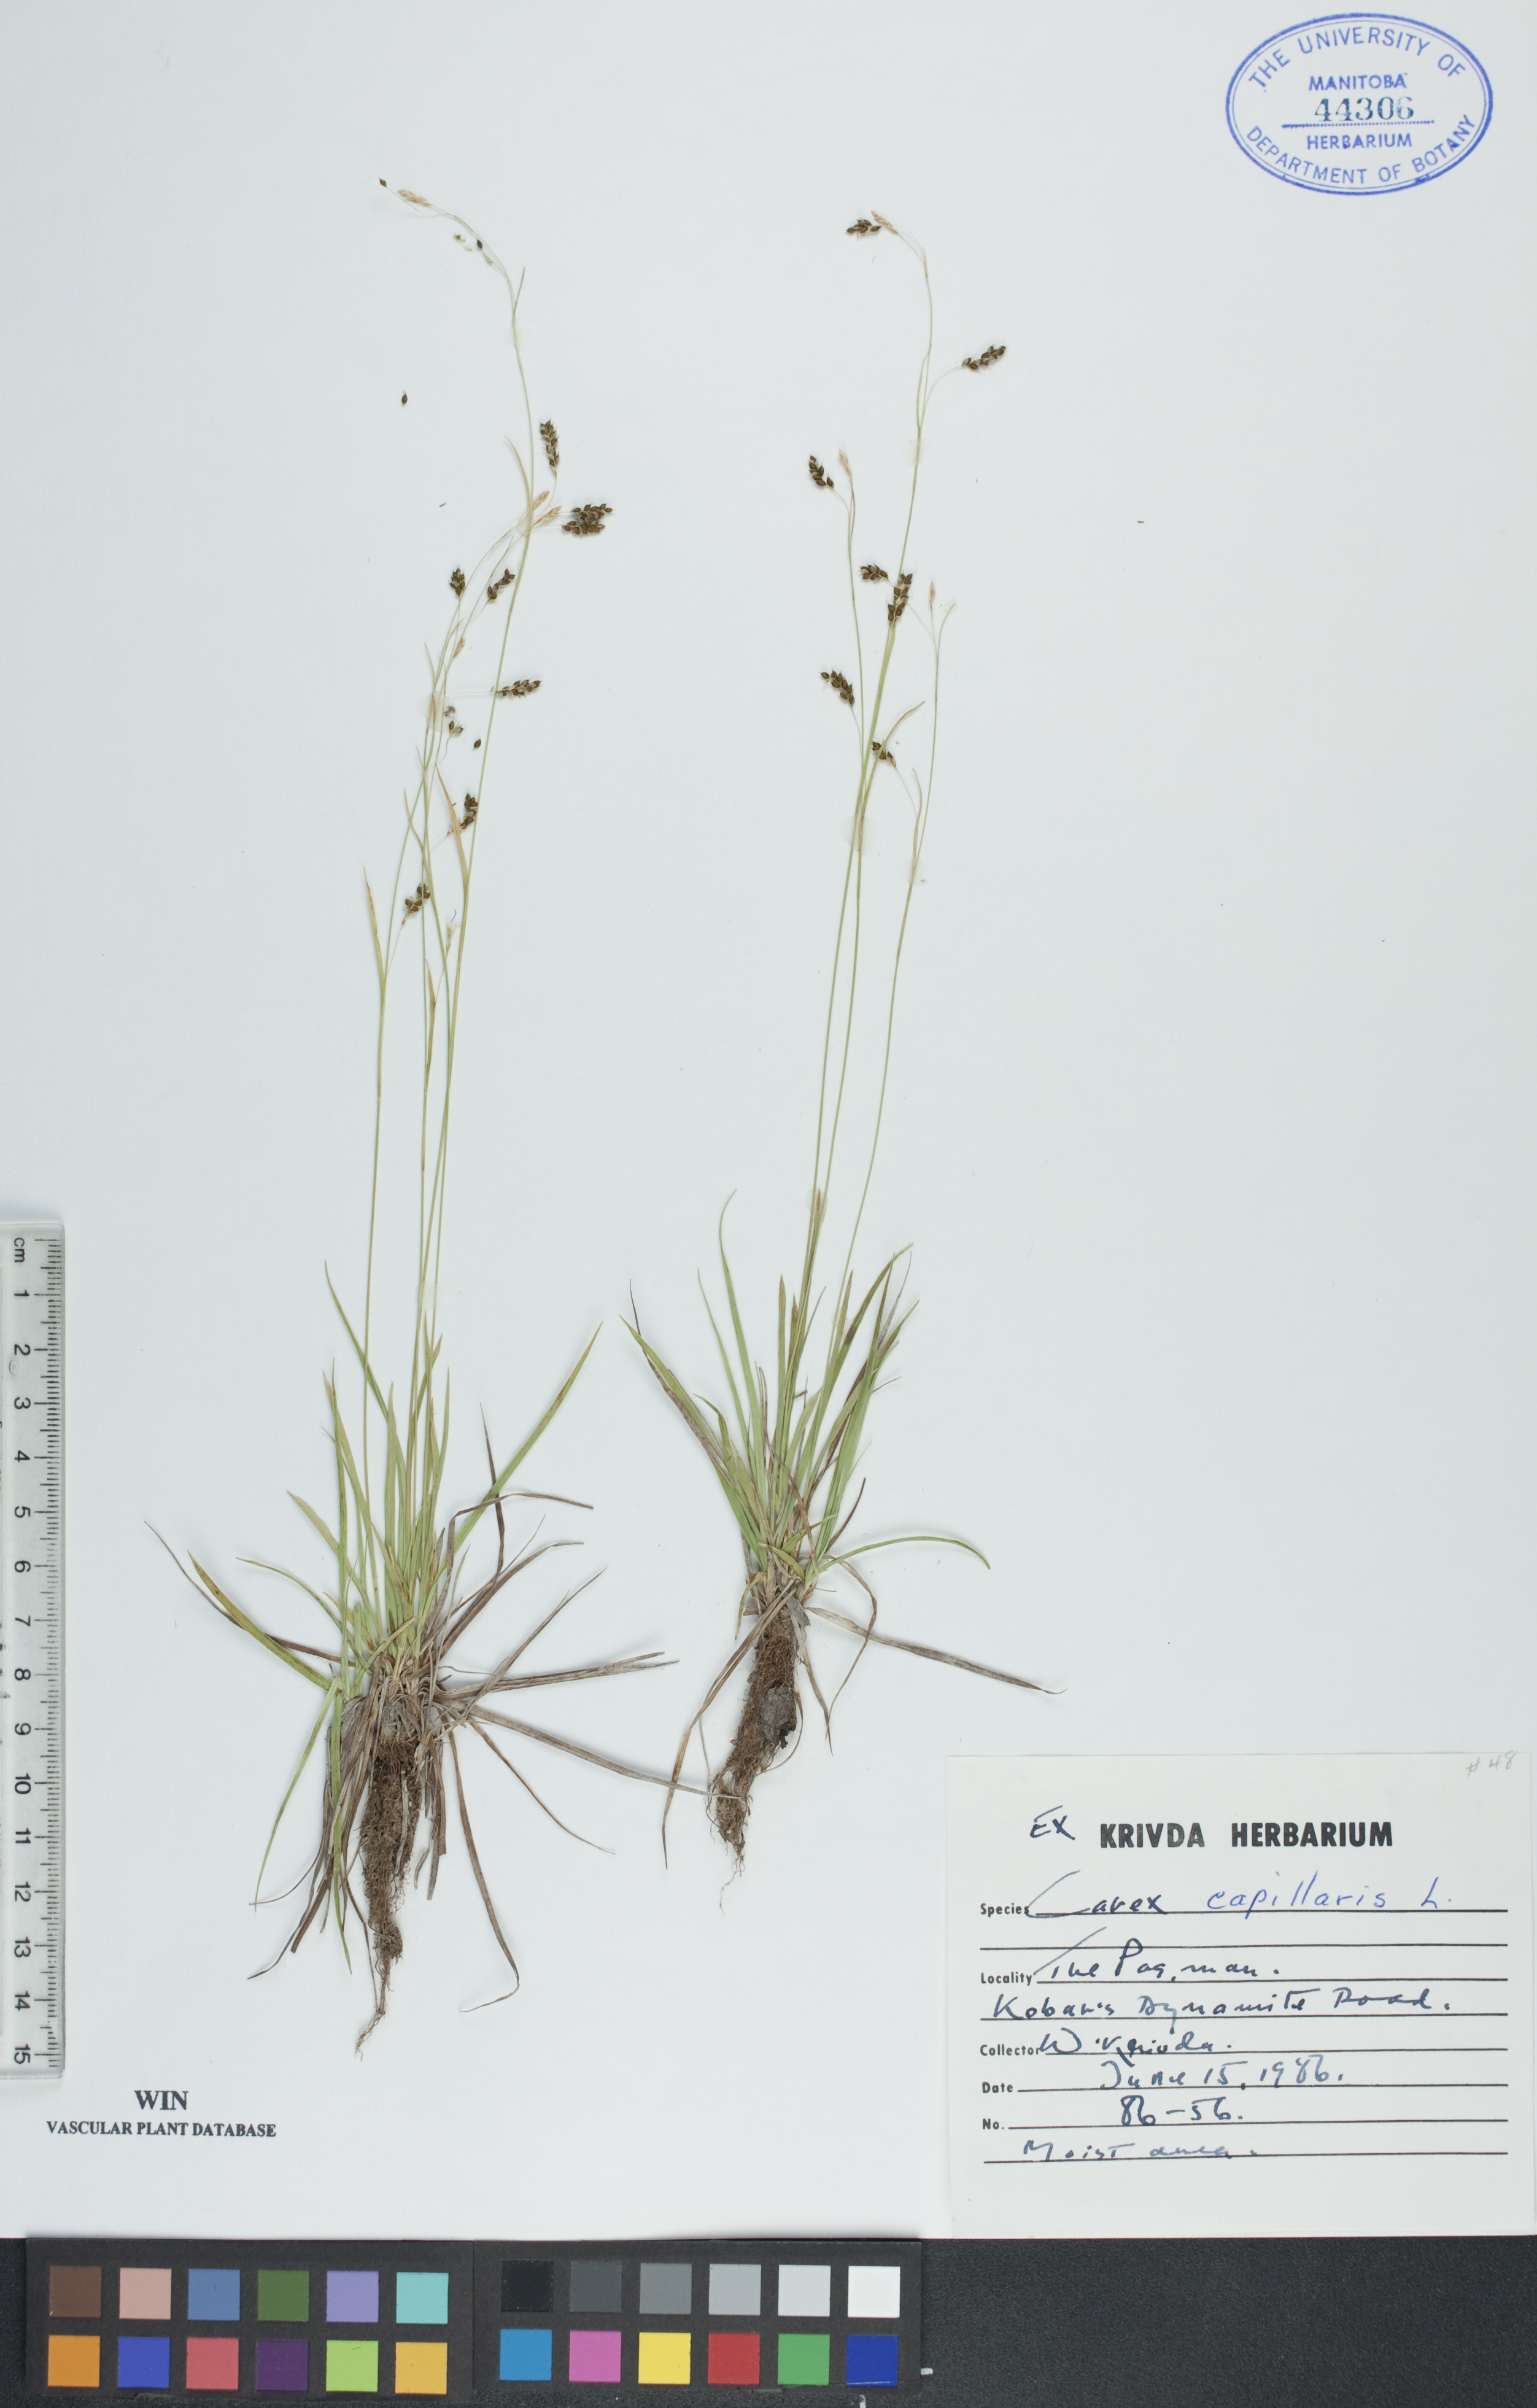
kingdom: Plantae
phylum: Tracheophyta
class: Liliopsida
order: Poales
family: Cyperaceae
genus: Carex
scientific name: Carex capillaris
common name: Hair sedge
